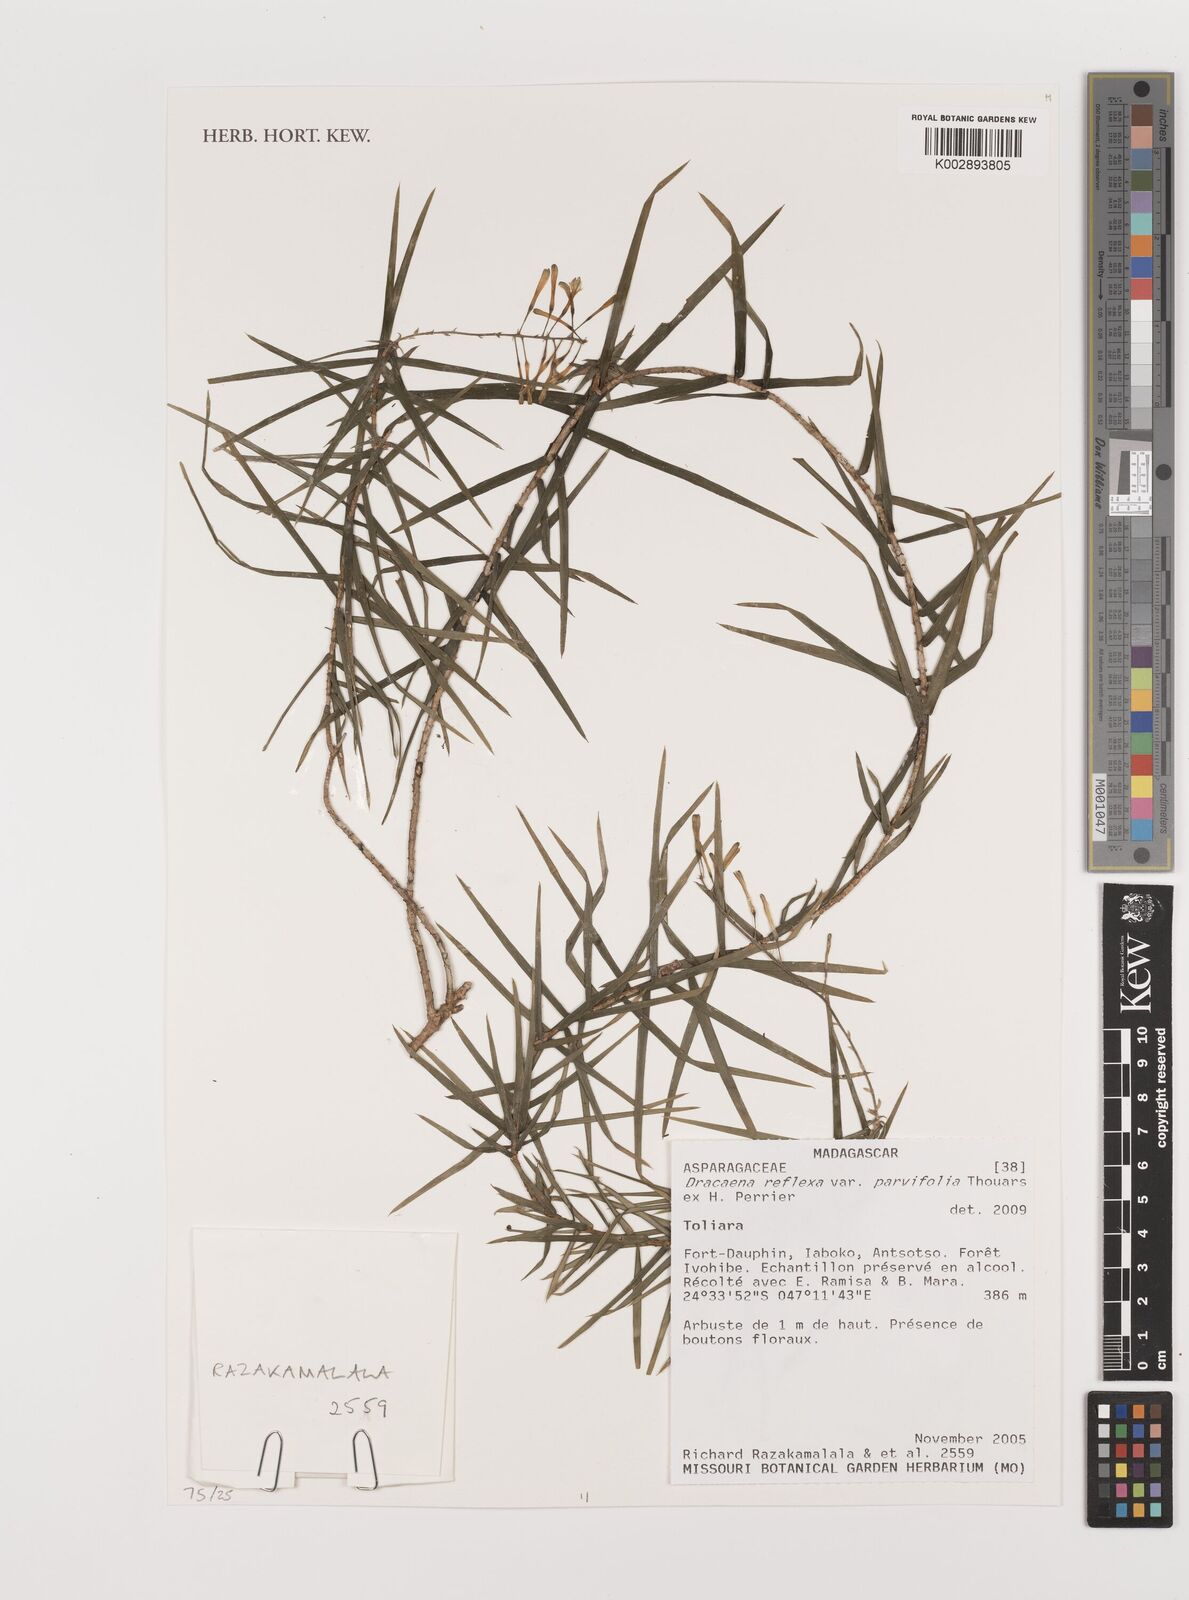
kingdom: Plantae
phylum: Tracheophyta
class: Liliopsida
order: Asparagales
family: Asparagaceae
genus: Dracaena
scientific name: Dracaena reflexa
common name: Song-of-india
